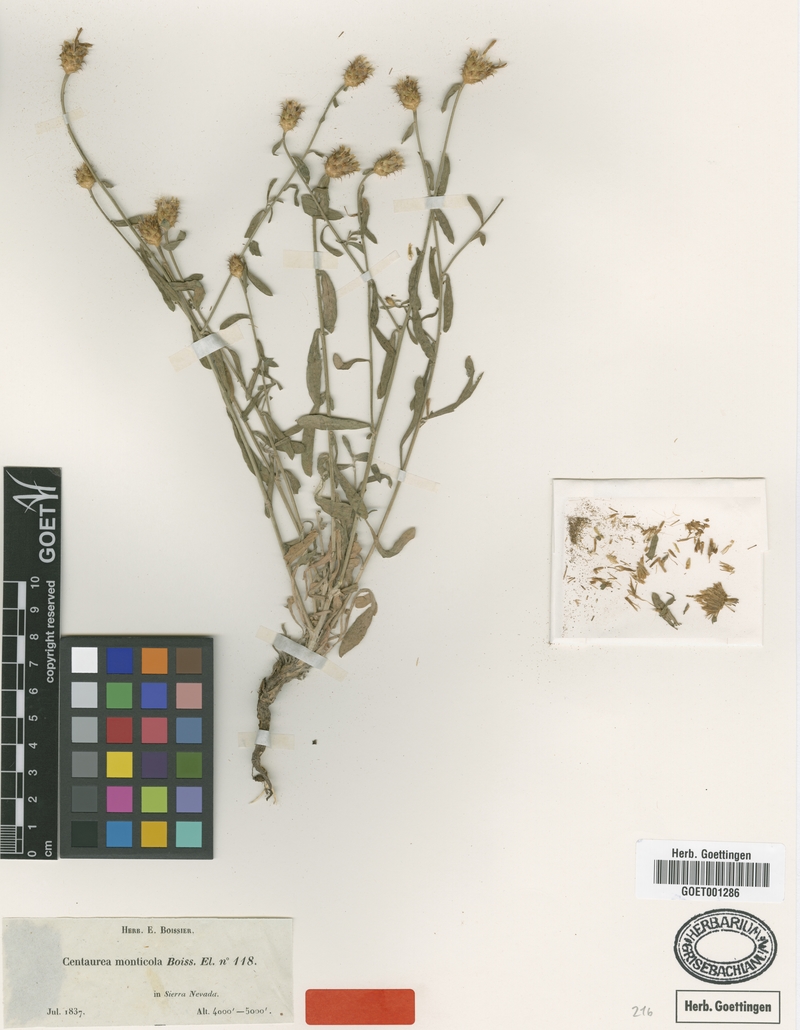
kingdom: Plantae
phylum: Tracheophyta
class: Magnoliopsida
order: Asterales
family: Asteraceae
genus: Centaurea
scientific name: Centaurea monticola
